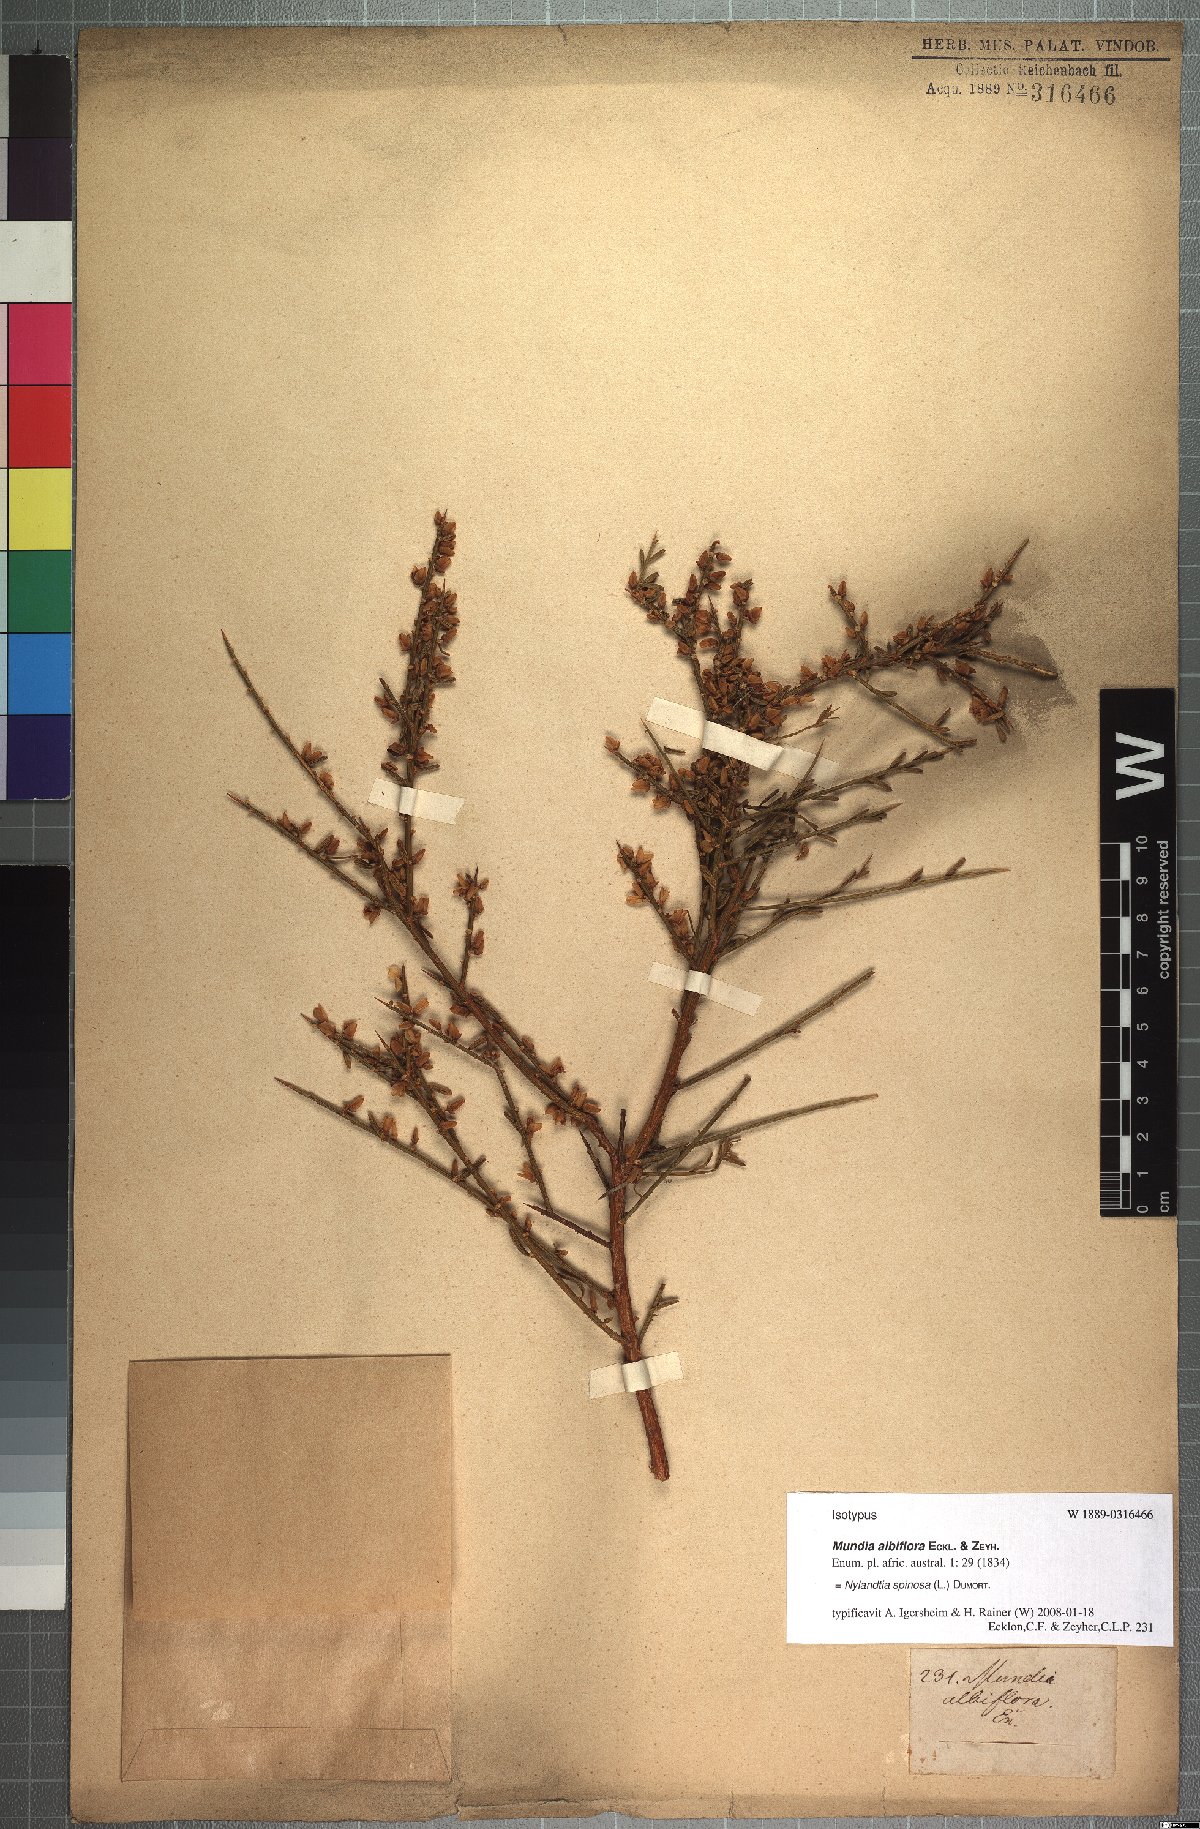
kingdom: Plantae
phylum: Tracheophyta
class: Magnoliopsida
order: Fabales
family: Polygalaceae
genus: Muraltia
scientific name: Muraltia spinosa
